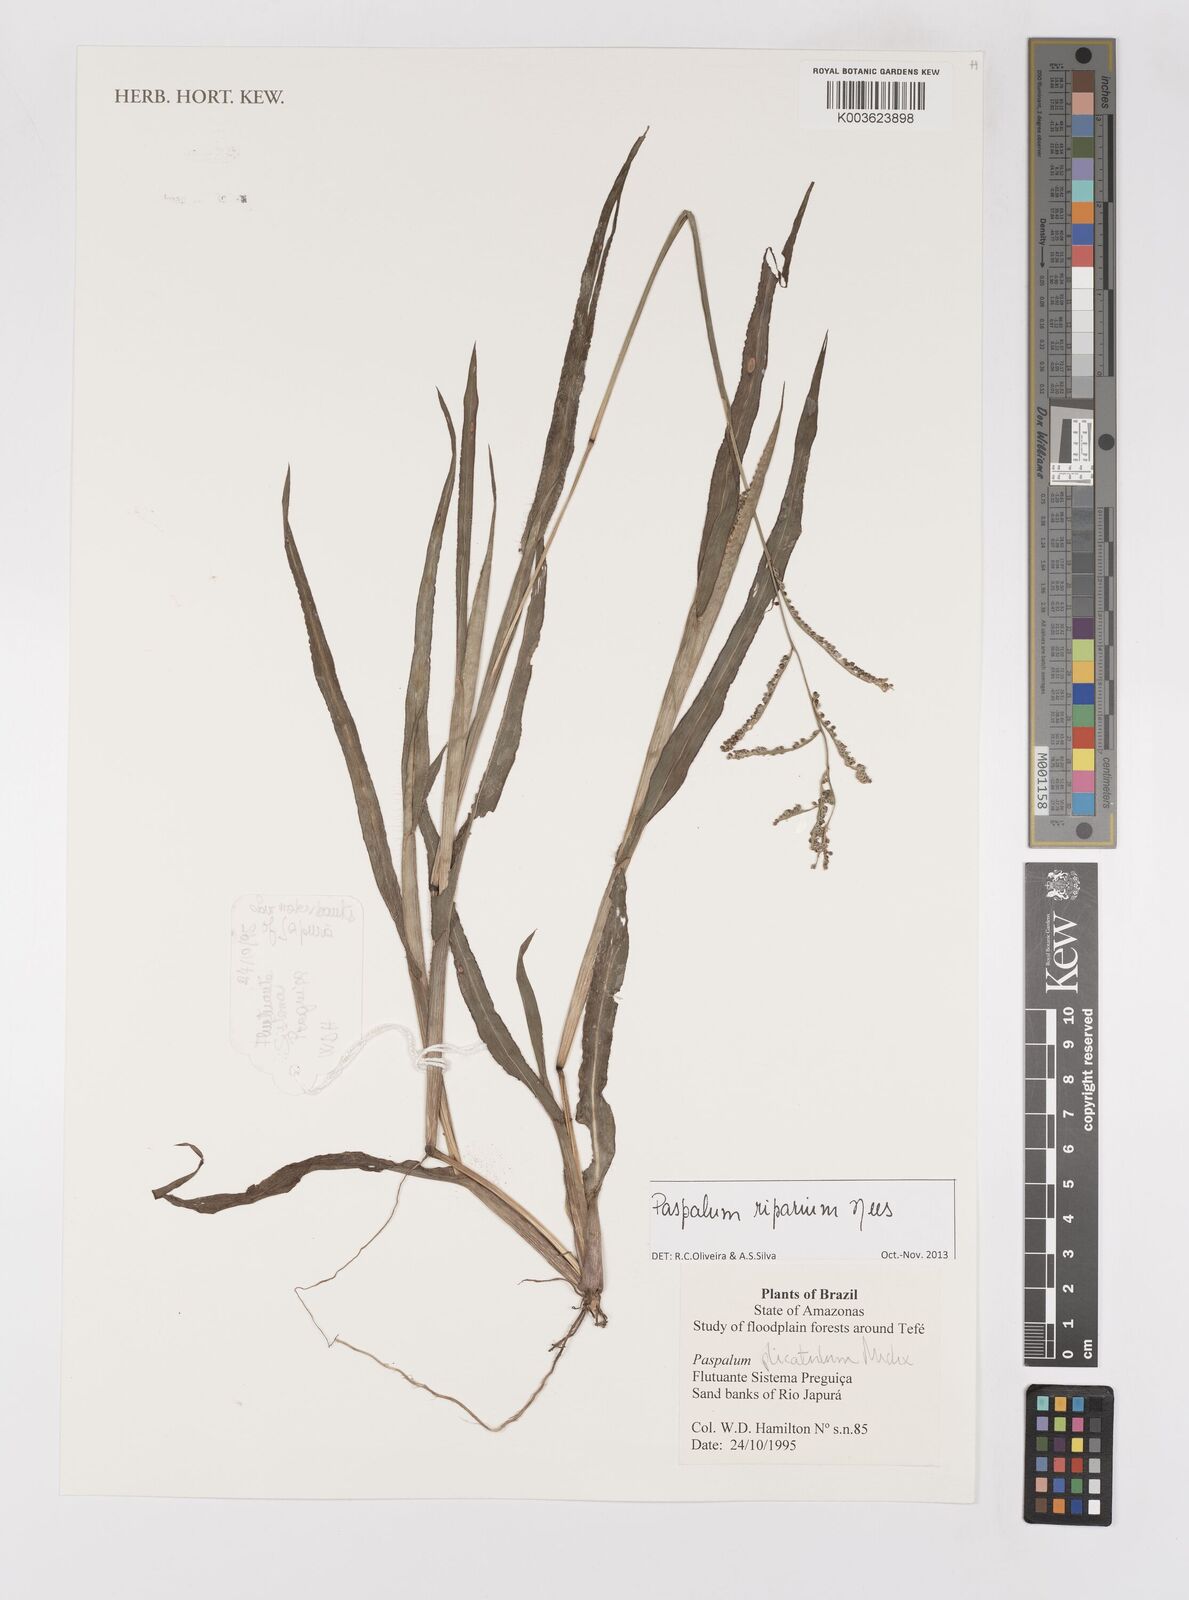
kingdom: Plantae
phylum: Tracheophyta
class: Liliopsida
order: Poales
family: Poaceae
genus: Paspalum
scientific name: Paspalum melanospermum
